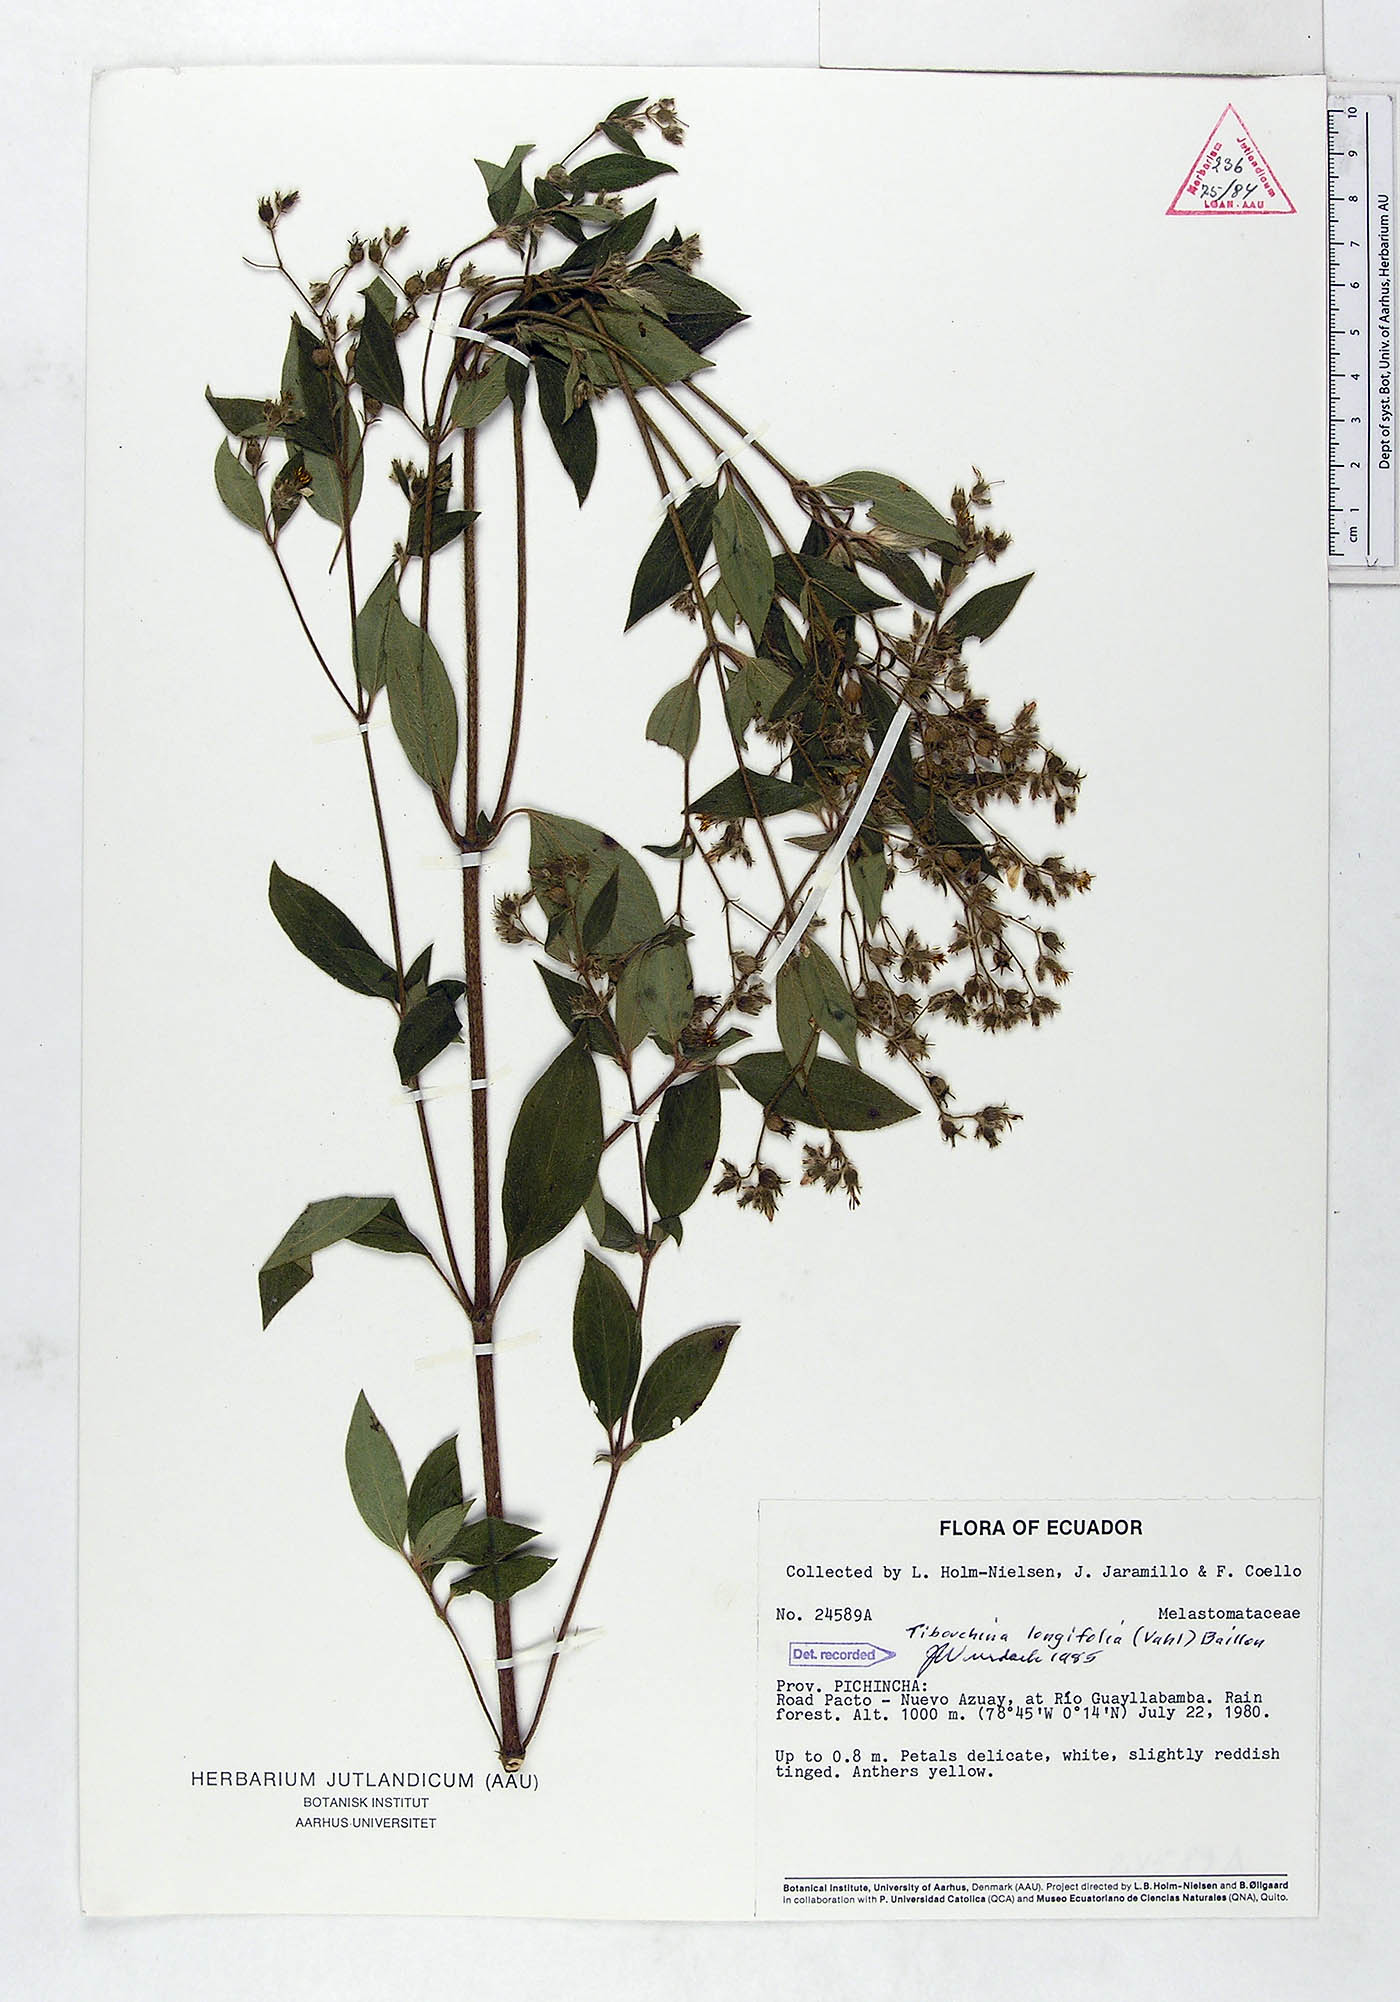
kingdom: Plantae
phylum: Tracheophyta
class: Magnoliopsida
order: Myrtales
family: Melastomataceae
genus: Chaetogastra
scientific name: Chaetogastra longifolia
